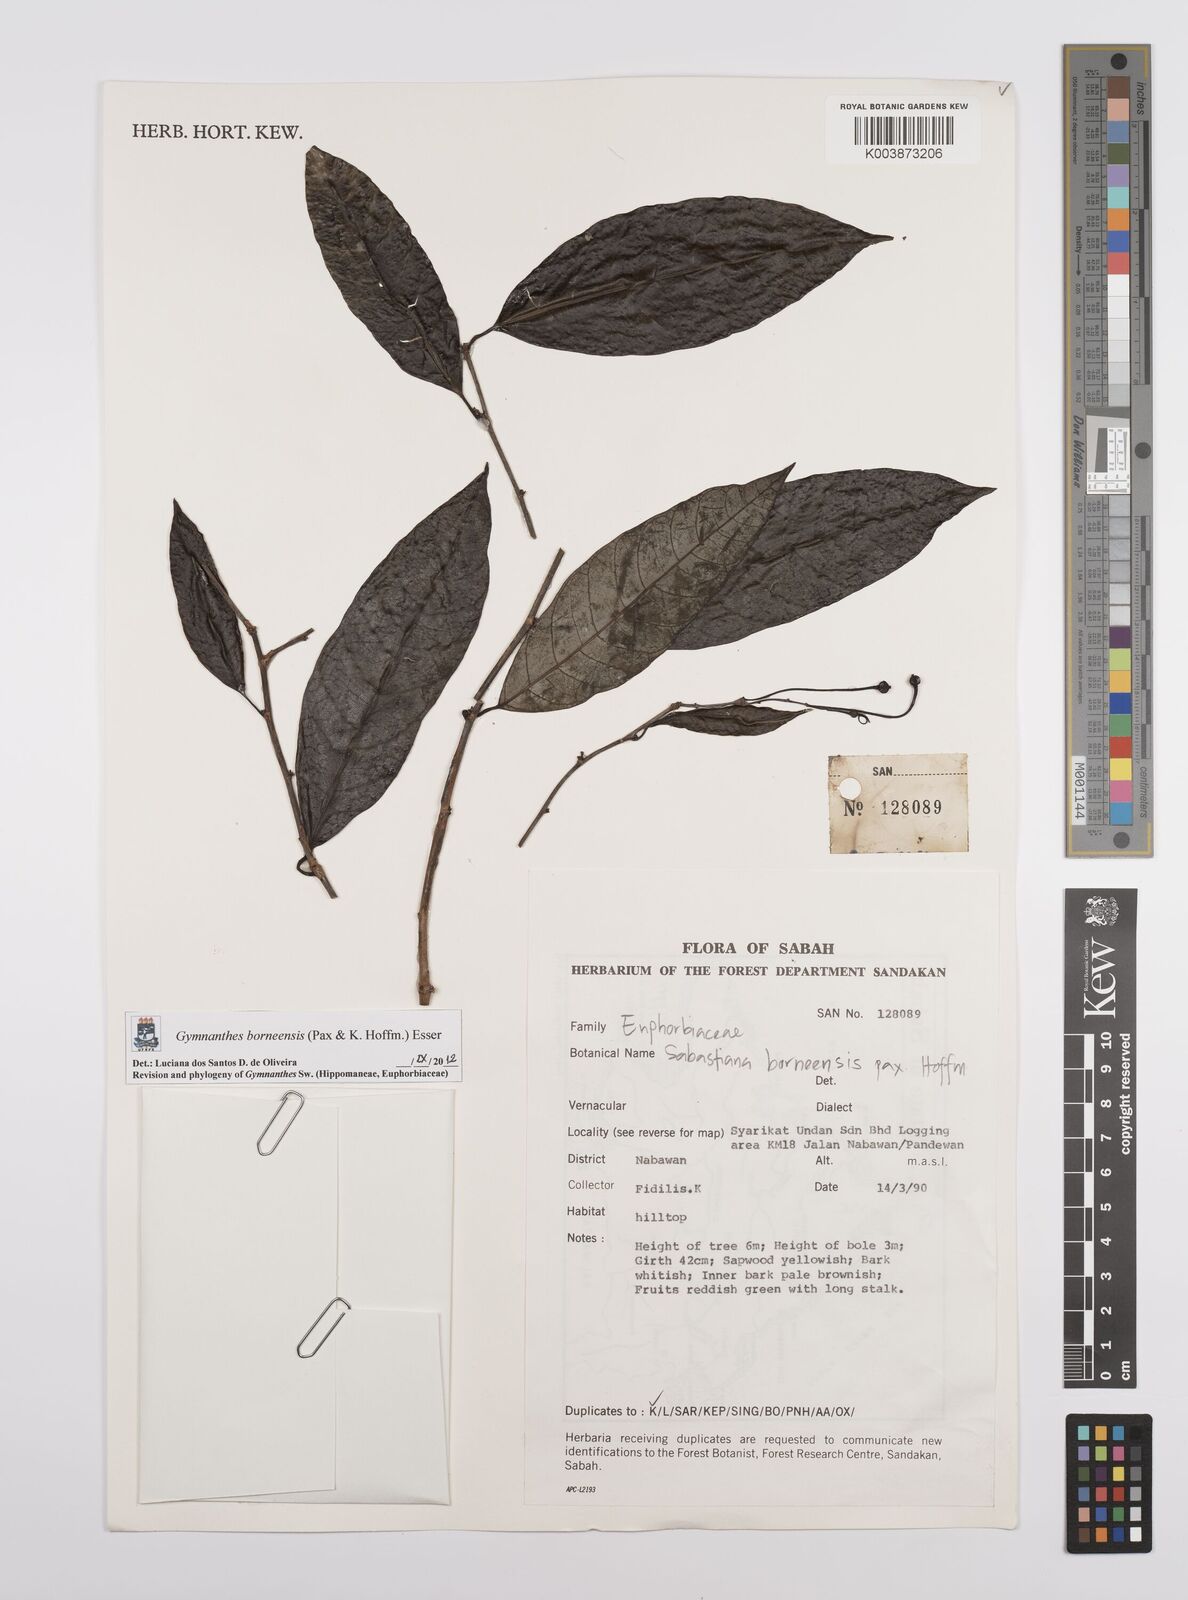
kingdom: Plantae
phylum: Tracheophyta
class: Magnoliopsida
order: Malpighiales
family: Euphorbiaceae
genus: Gymnanthes
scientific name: Gymnanthes borneensis
